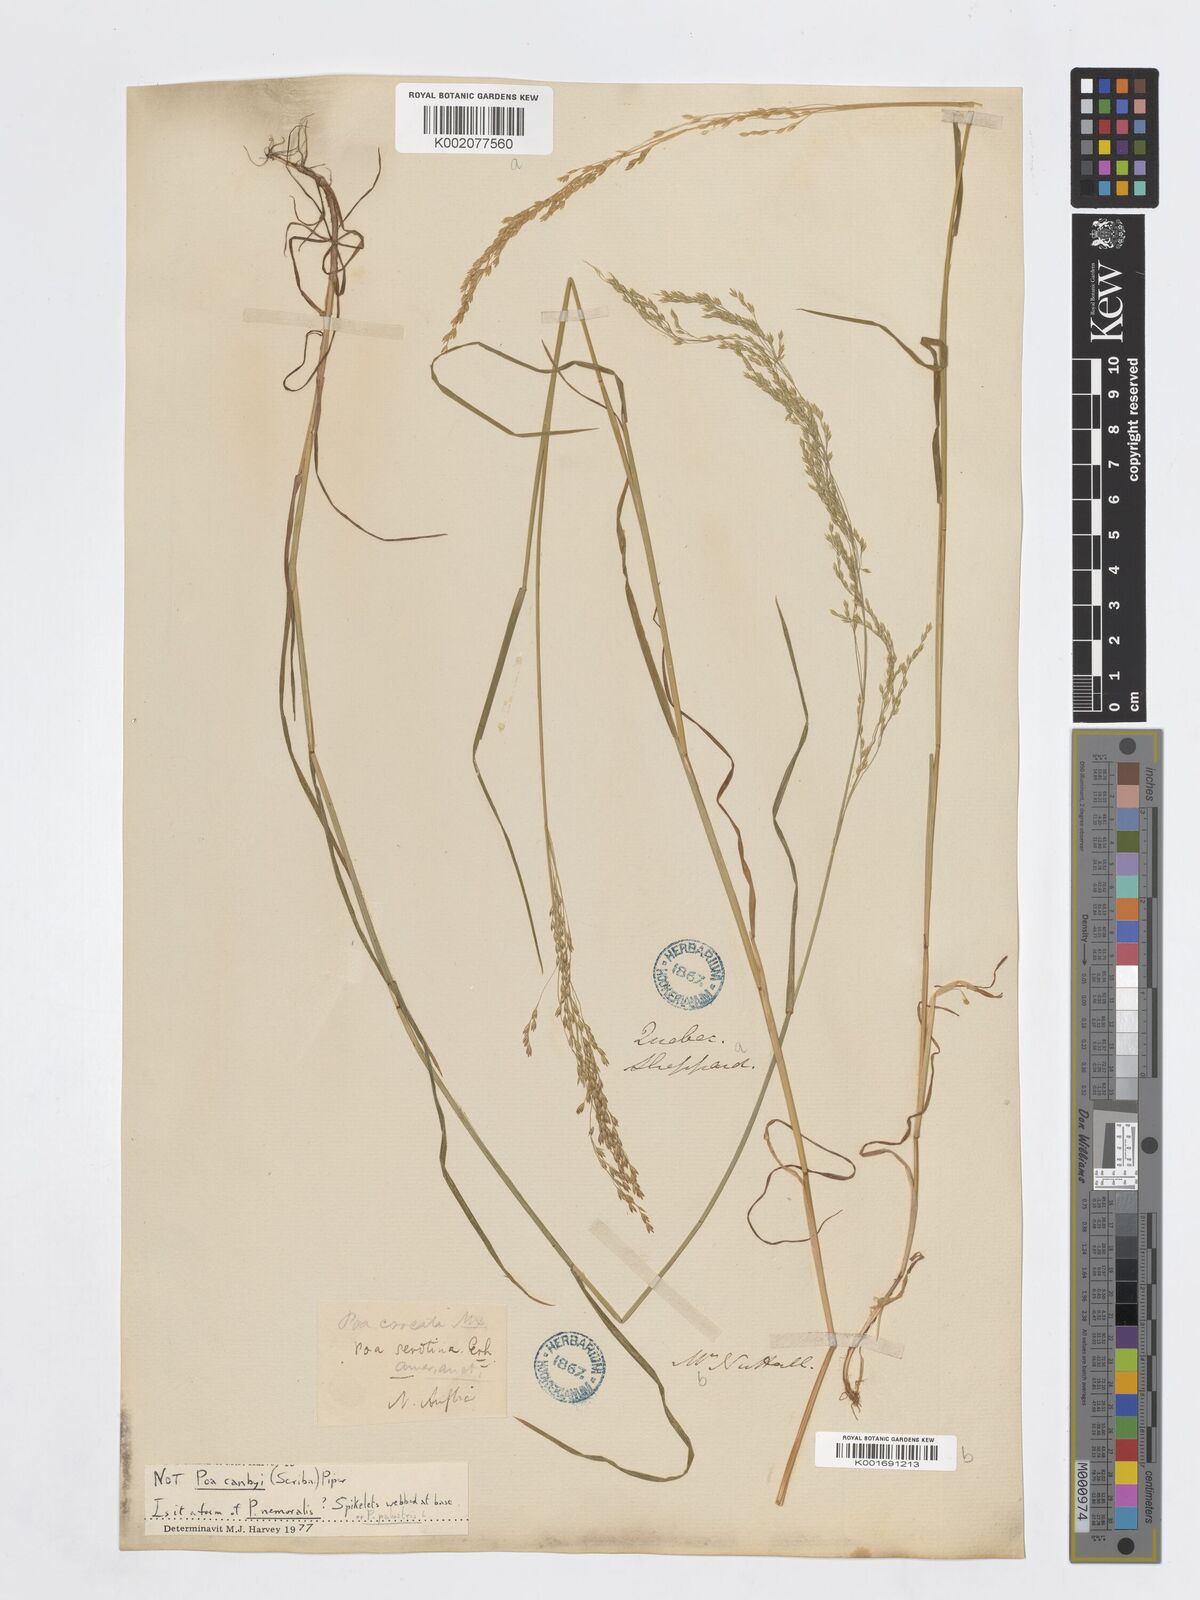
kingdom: Plantae
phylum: Tracheophyta
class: Liliopsida
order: Poales
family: Poaceae
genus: Poa
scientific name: Poa palustris
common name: Swamp meadow-grass
